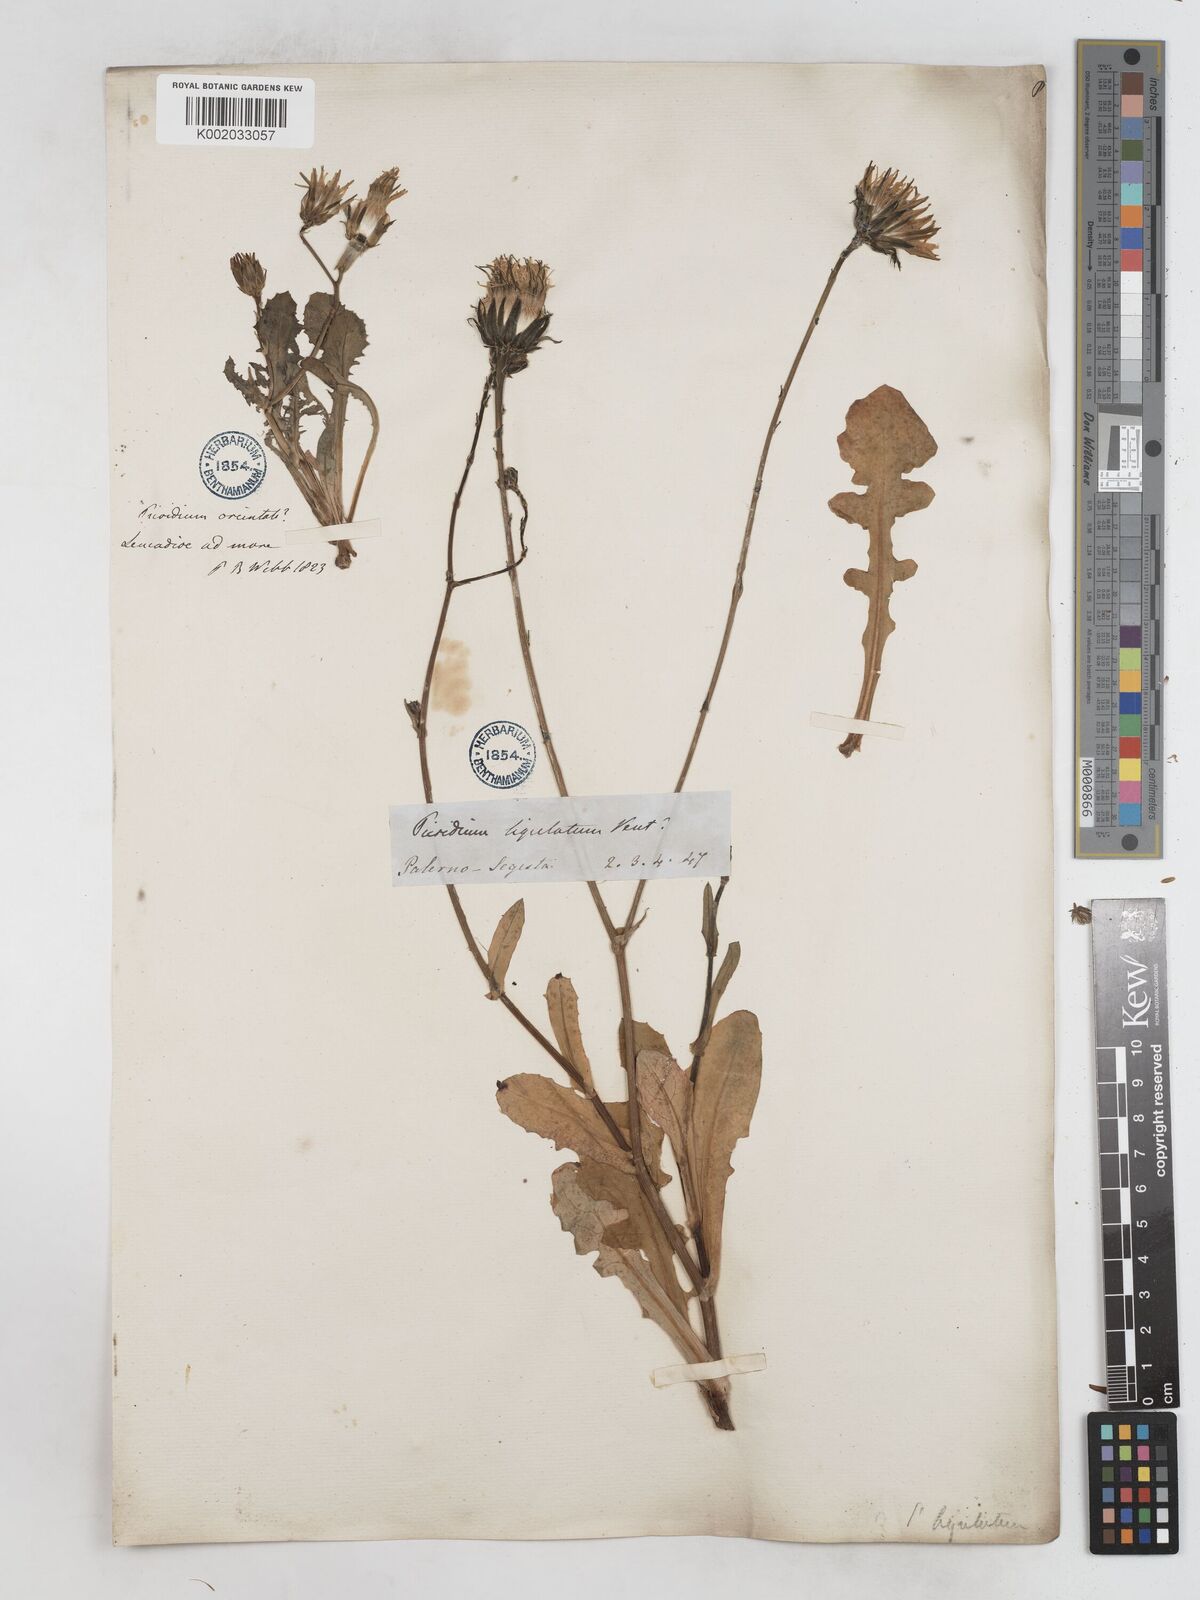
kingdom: Plantae
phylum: Tracheophyta
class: Magnoliopsida
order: Asterales
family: Asteraceae
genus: Reichardia
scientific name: Reichardia tingitana
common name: Reichardia
